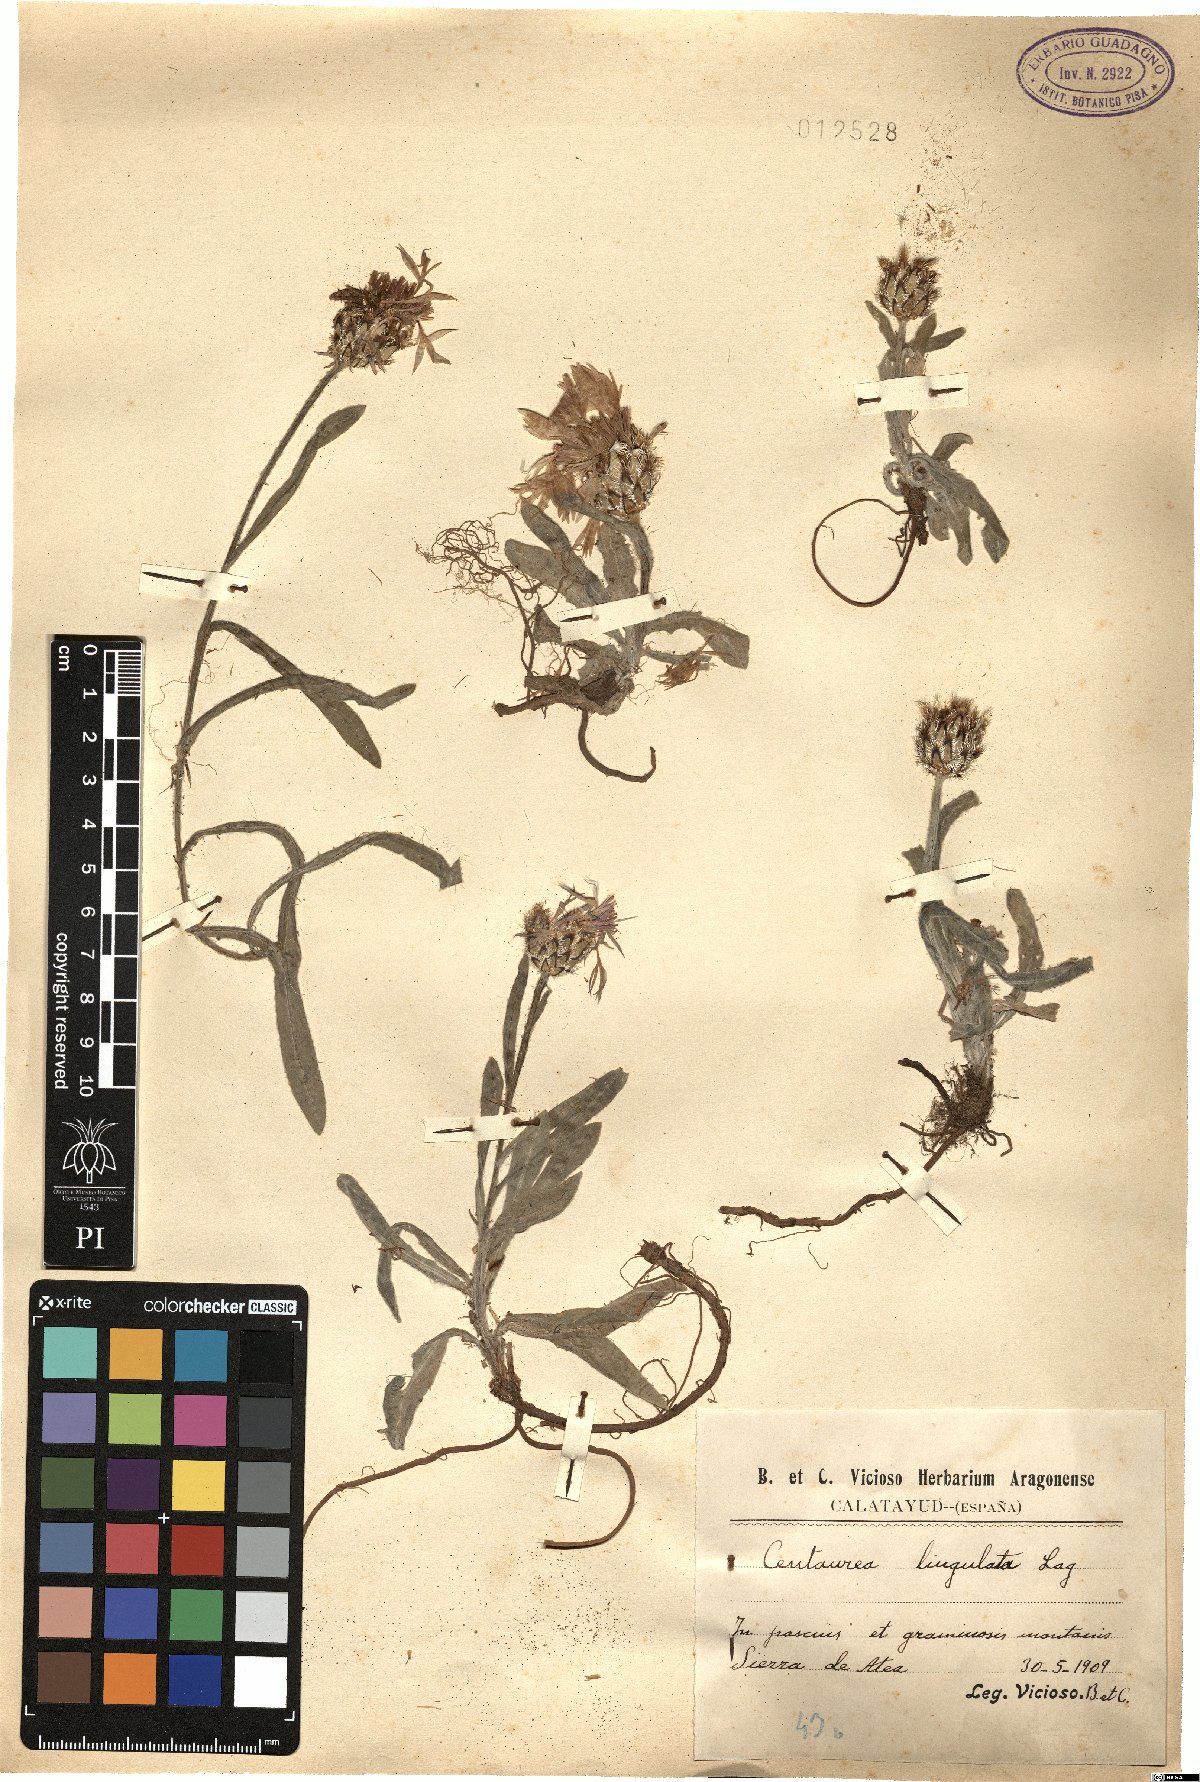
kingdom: Plantae
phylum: Tracheophyta
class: Magnoliopsida
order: Asterales
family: Asteraceae
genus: Centaurea
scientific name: Centaurea graminifolia
